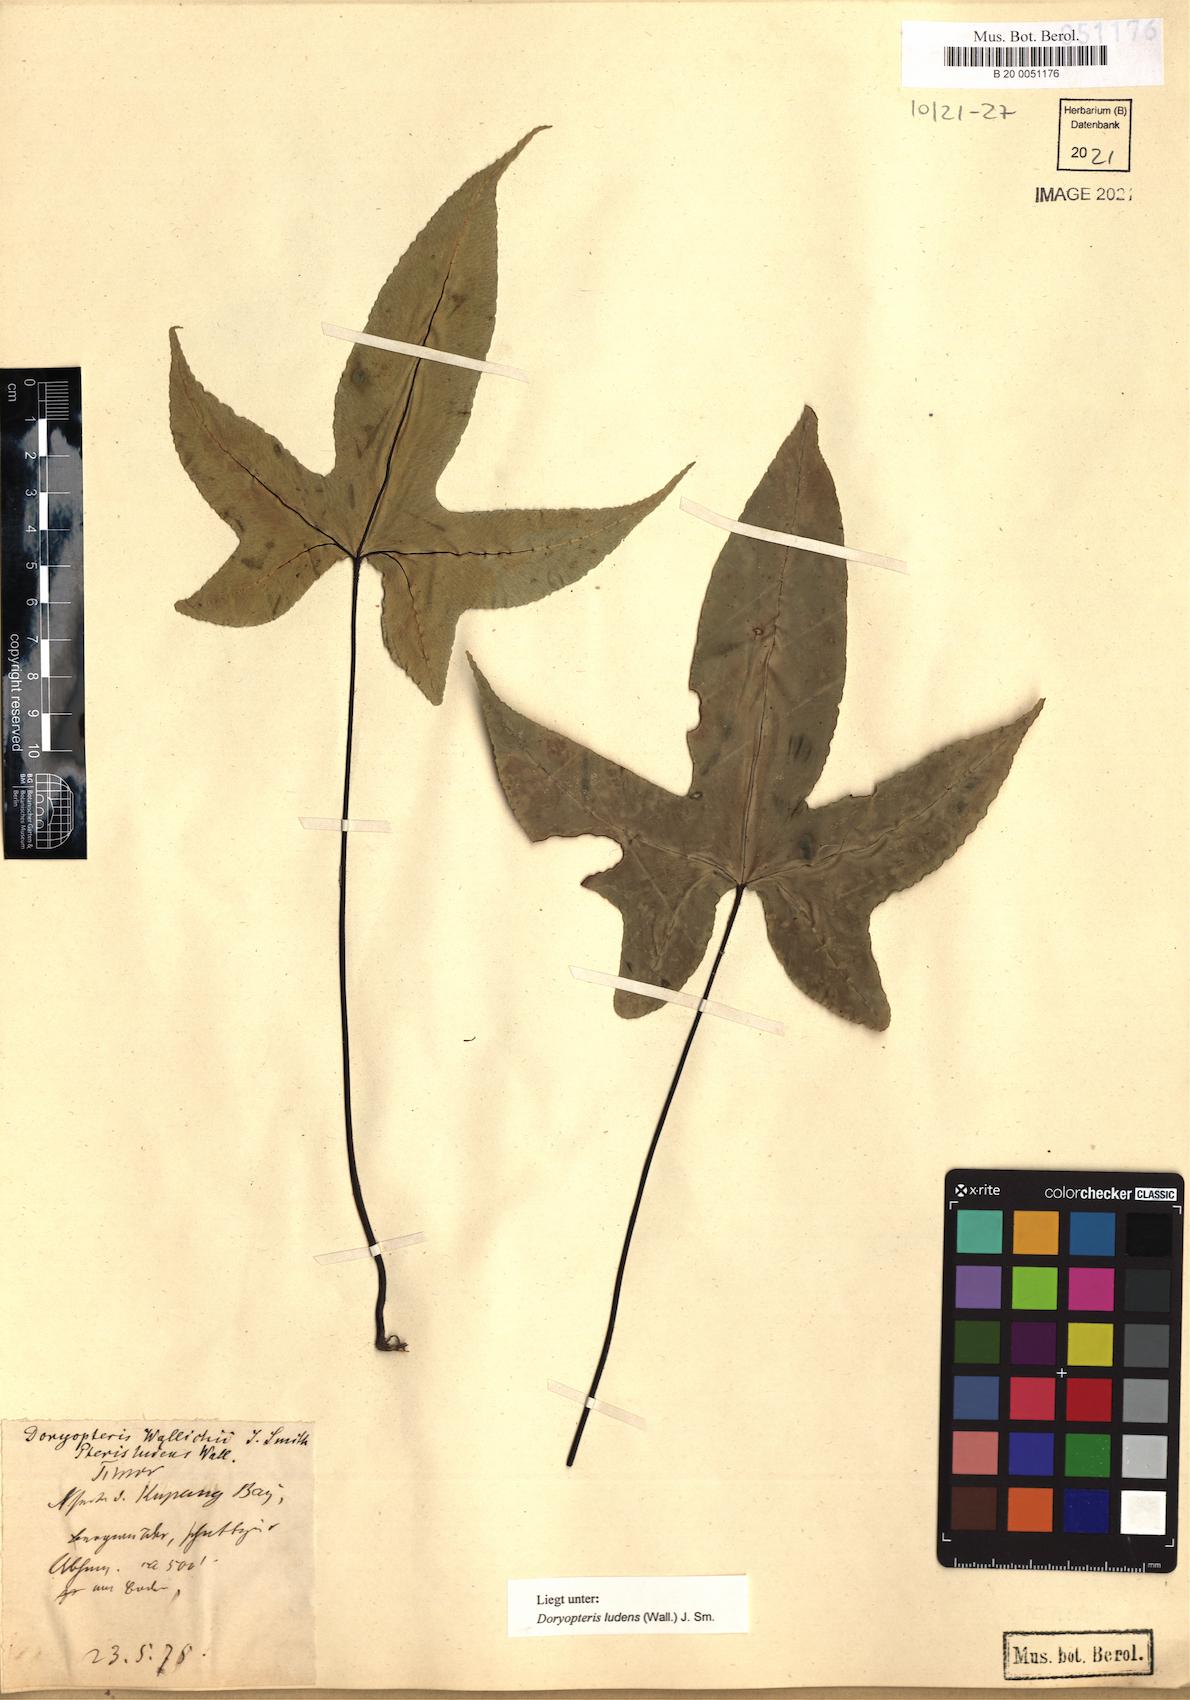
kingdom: Plantae
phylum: Tracheophyta
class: Polypodiopsida
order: Polypodiales
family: Pteridaceae
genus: Calciphilopteris
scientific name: Calciphilopteris ludens
